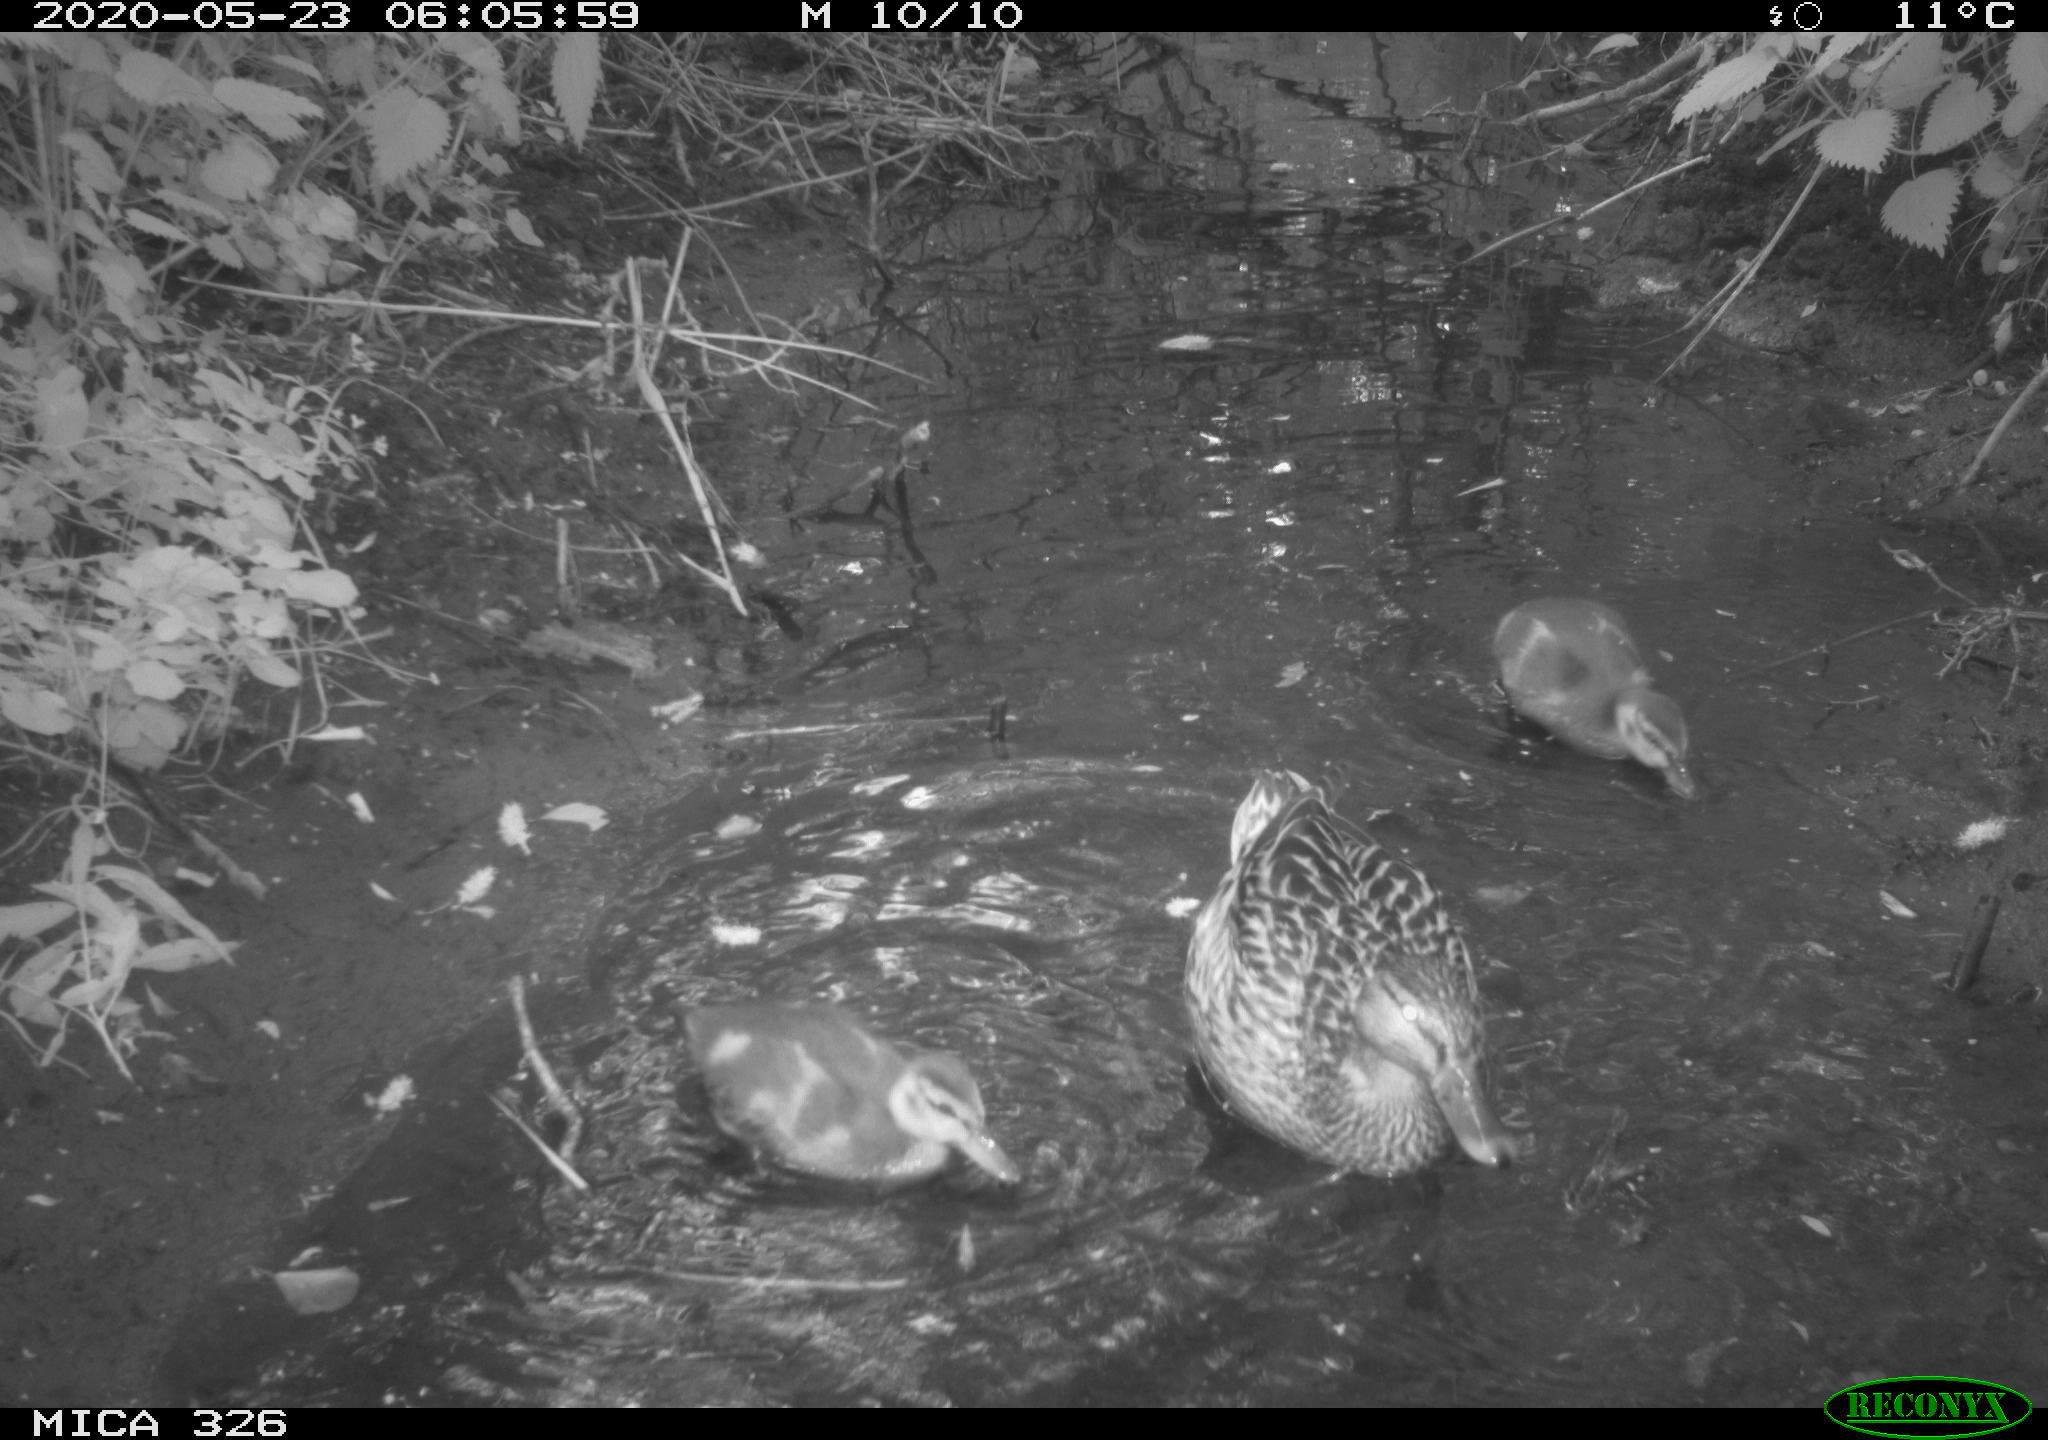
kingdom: Animalia
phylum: Chordata
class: Aves
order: Anseriformes
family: Anatidae
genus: Anas
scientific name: Anas platyrhynchos
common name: Mallard
